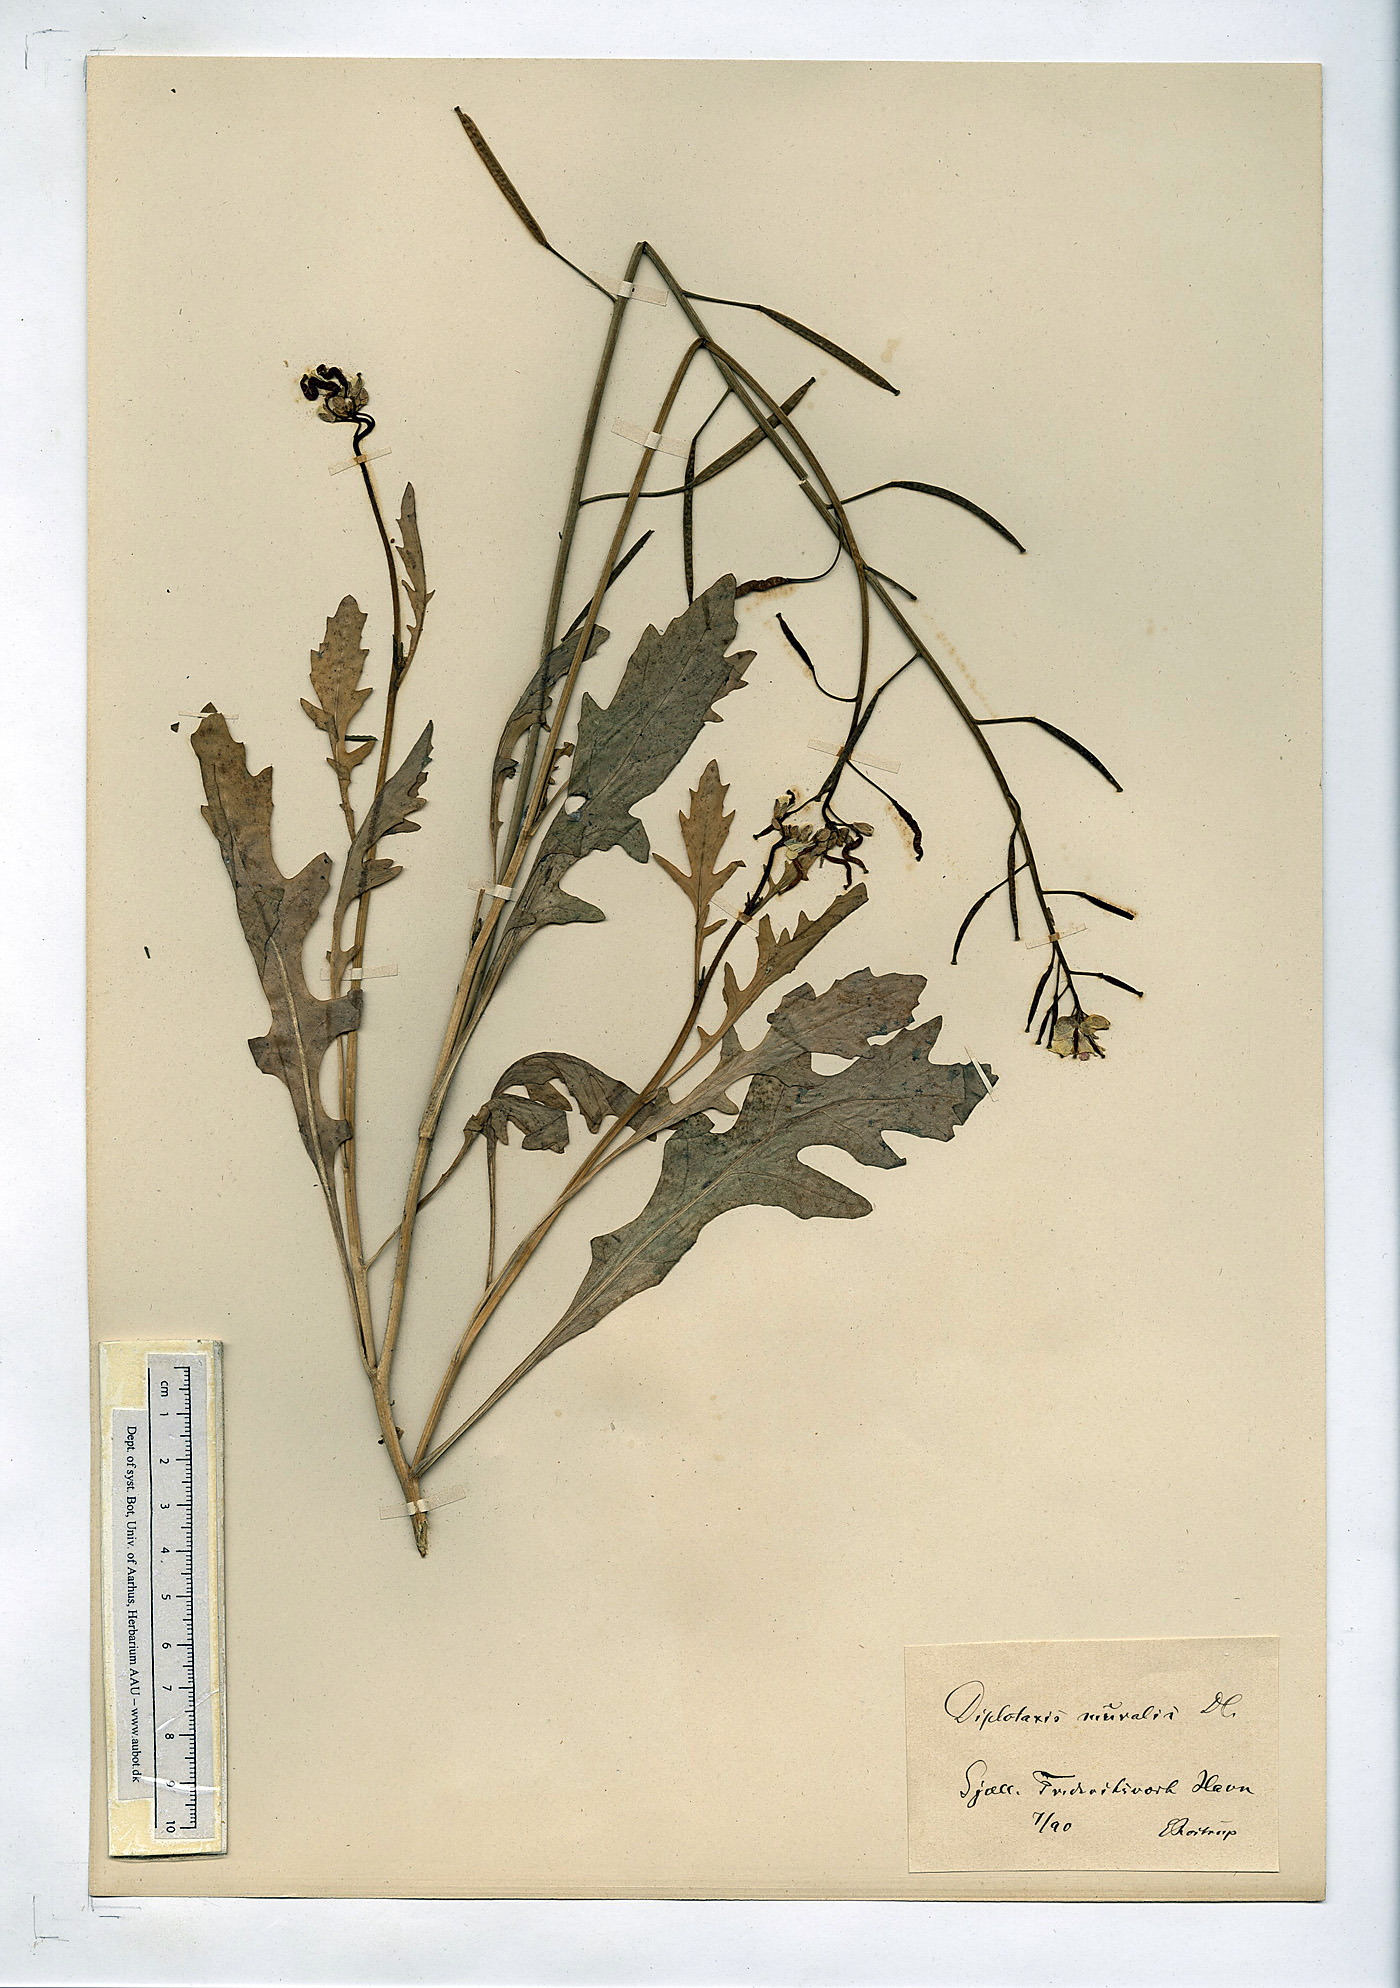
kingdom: Plantae
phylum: Tracheophyta
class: Magnoliopsida
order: Brassicales
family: Brassicaceae
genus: Diplotaxis
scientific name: Diplotaxis muralis
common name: Annual wall-rocket
